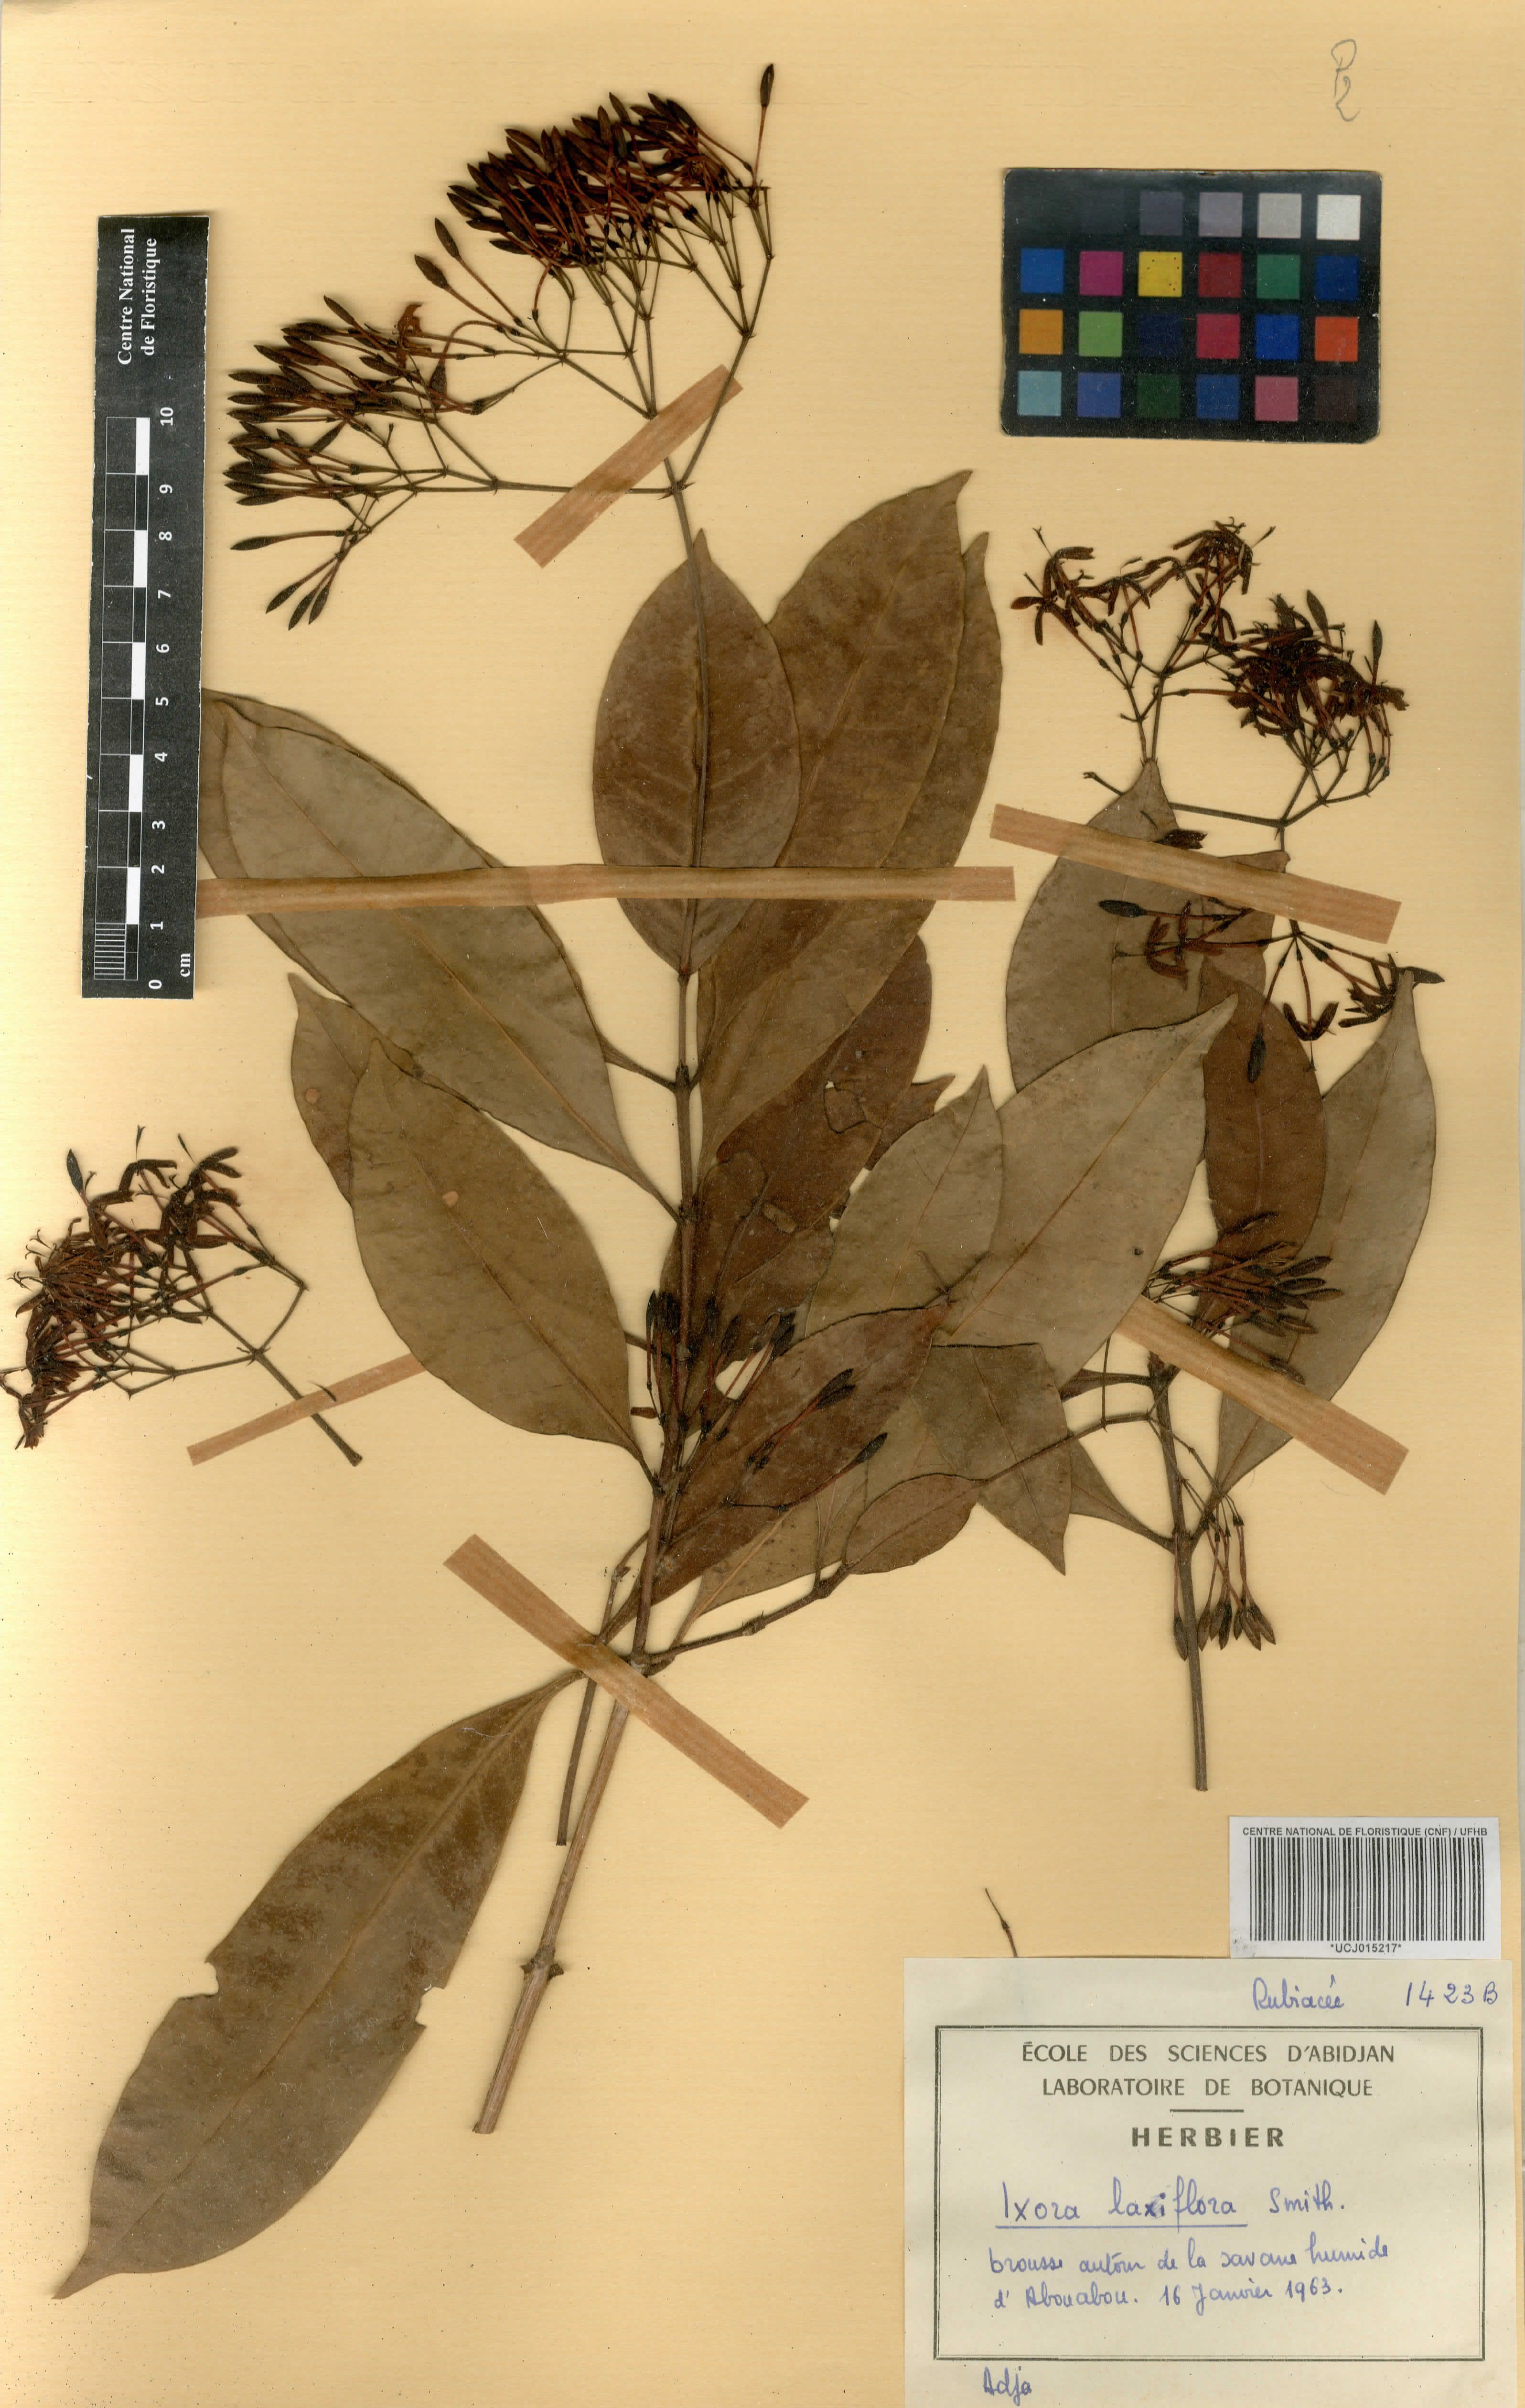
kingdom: Plantae
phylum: Tracheophyta
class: Magnoliopsida
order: Gentianales
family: Rubiaceae
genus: Ixora
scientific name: Ixora laxiflora
